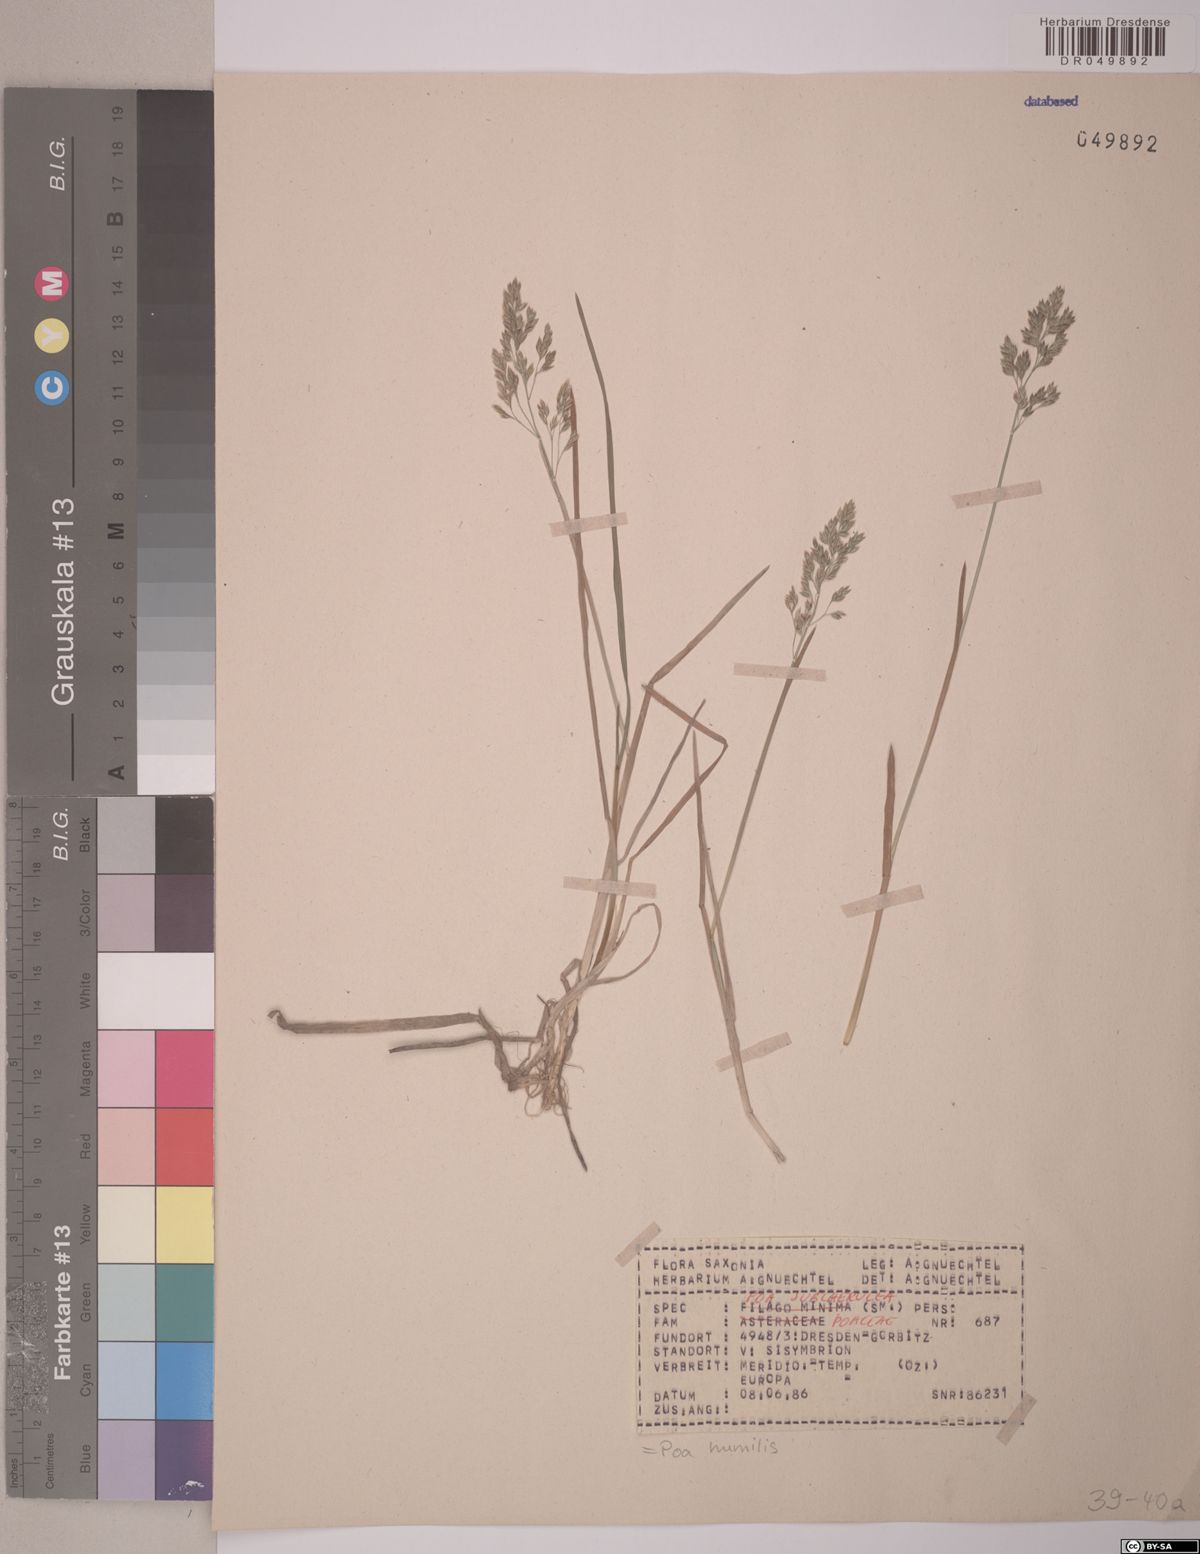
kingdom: Plantae
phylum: Tracheophyta
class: Liliopsida
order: Poales
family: Poaceae
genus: Poa
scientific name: Poa humilis
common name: Spreading meadow-grass
